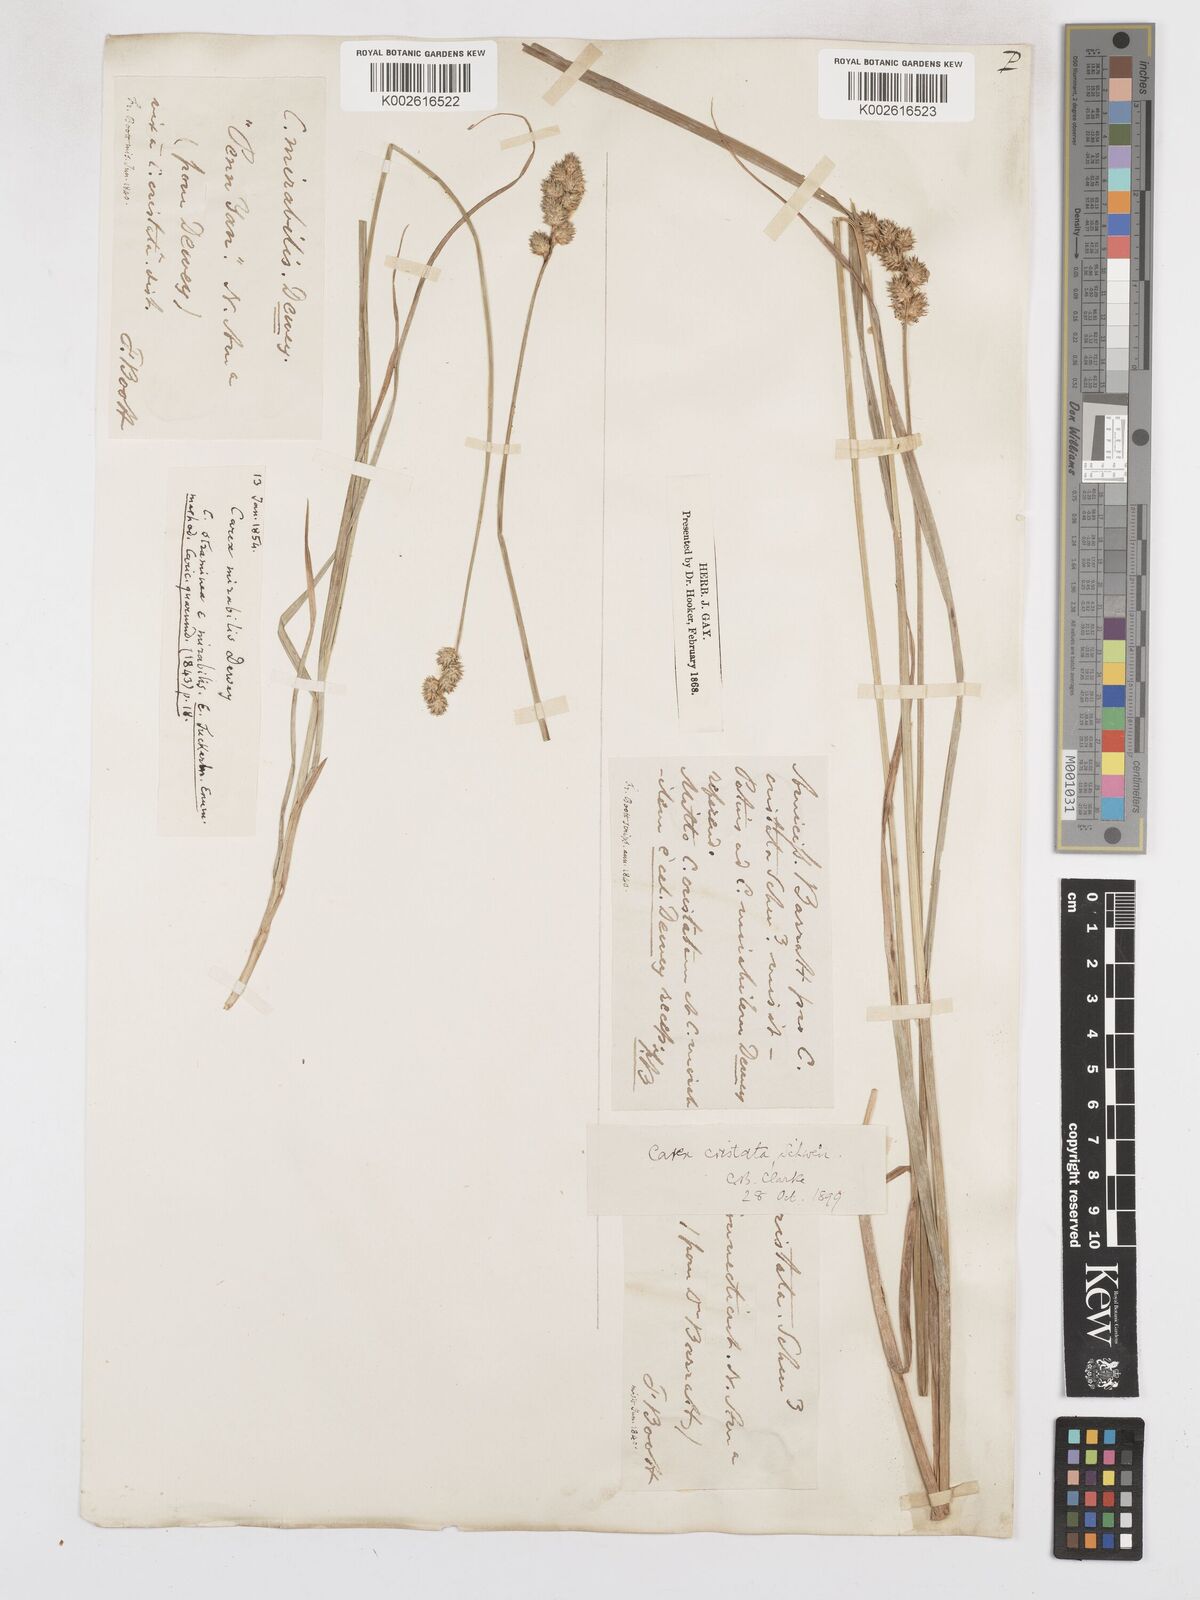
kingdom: Plantae
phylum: Tracheophyta
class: Liliopsida
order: Poales
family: Cyperaceae
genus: Carex
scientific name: Carex cristatella
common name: Crested oval sedge
